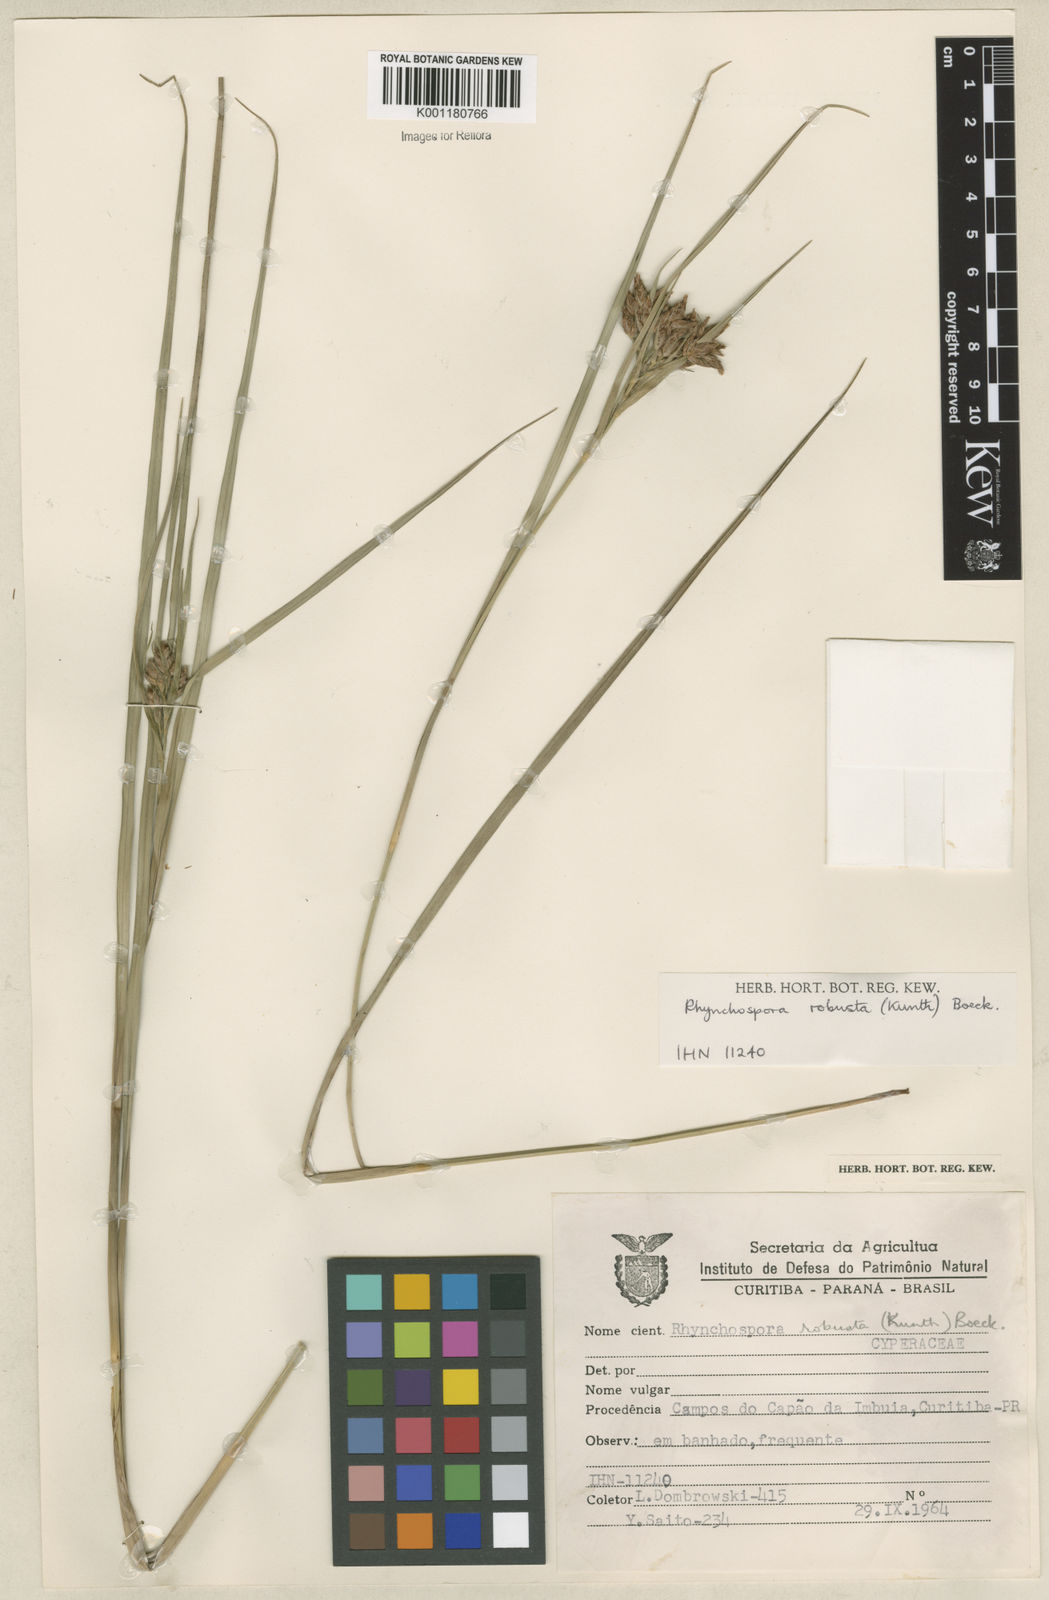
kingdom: Plantae
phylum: Tracheophyta
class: Liliopsida
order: Poales
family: Cyperaceae
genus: Rhynchospora
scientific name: Rhynchospora robusta
